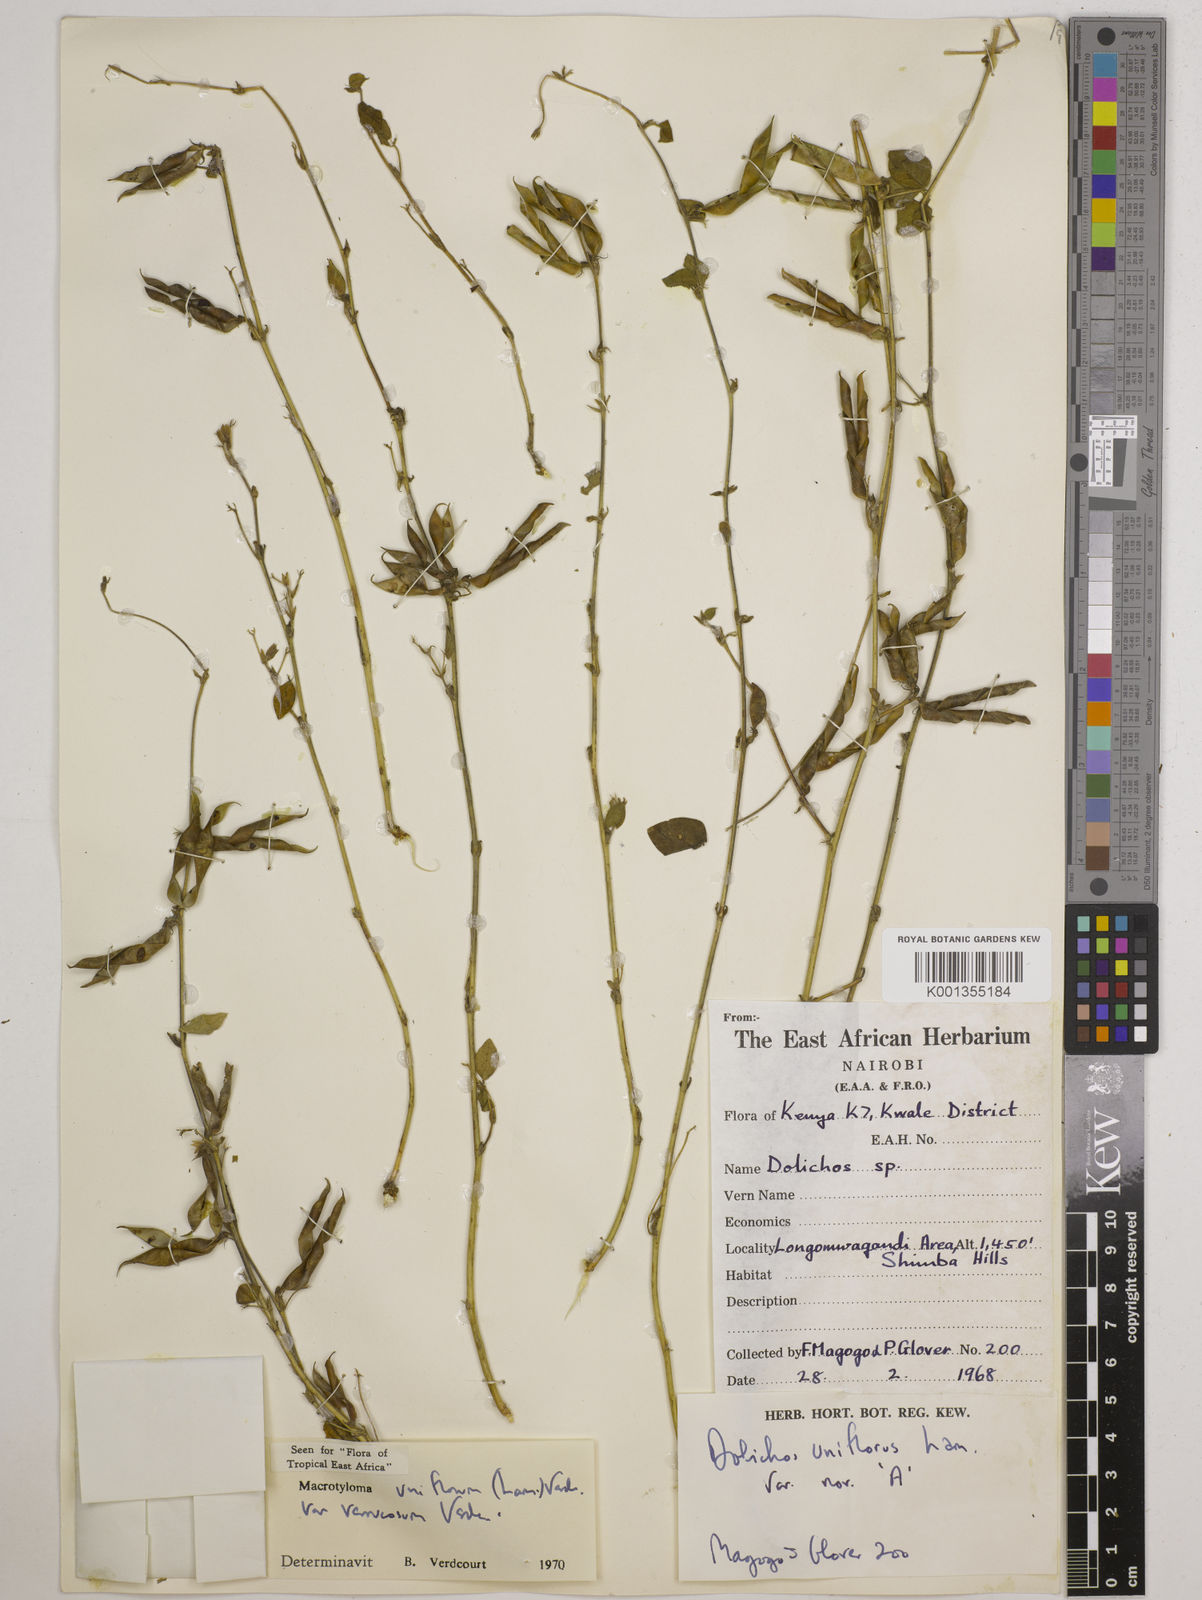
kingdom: Plantae
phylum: Tracheophyta
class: Magnoliopsida
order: Fabales
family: Fabaceae
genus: Macrotyloma
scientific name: Macrotyloma
